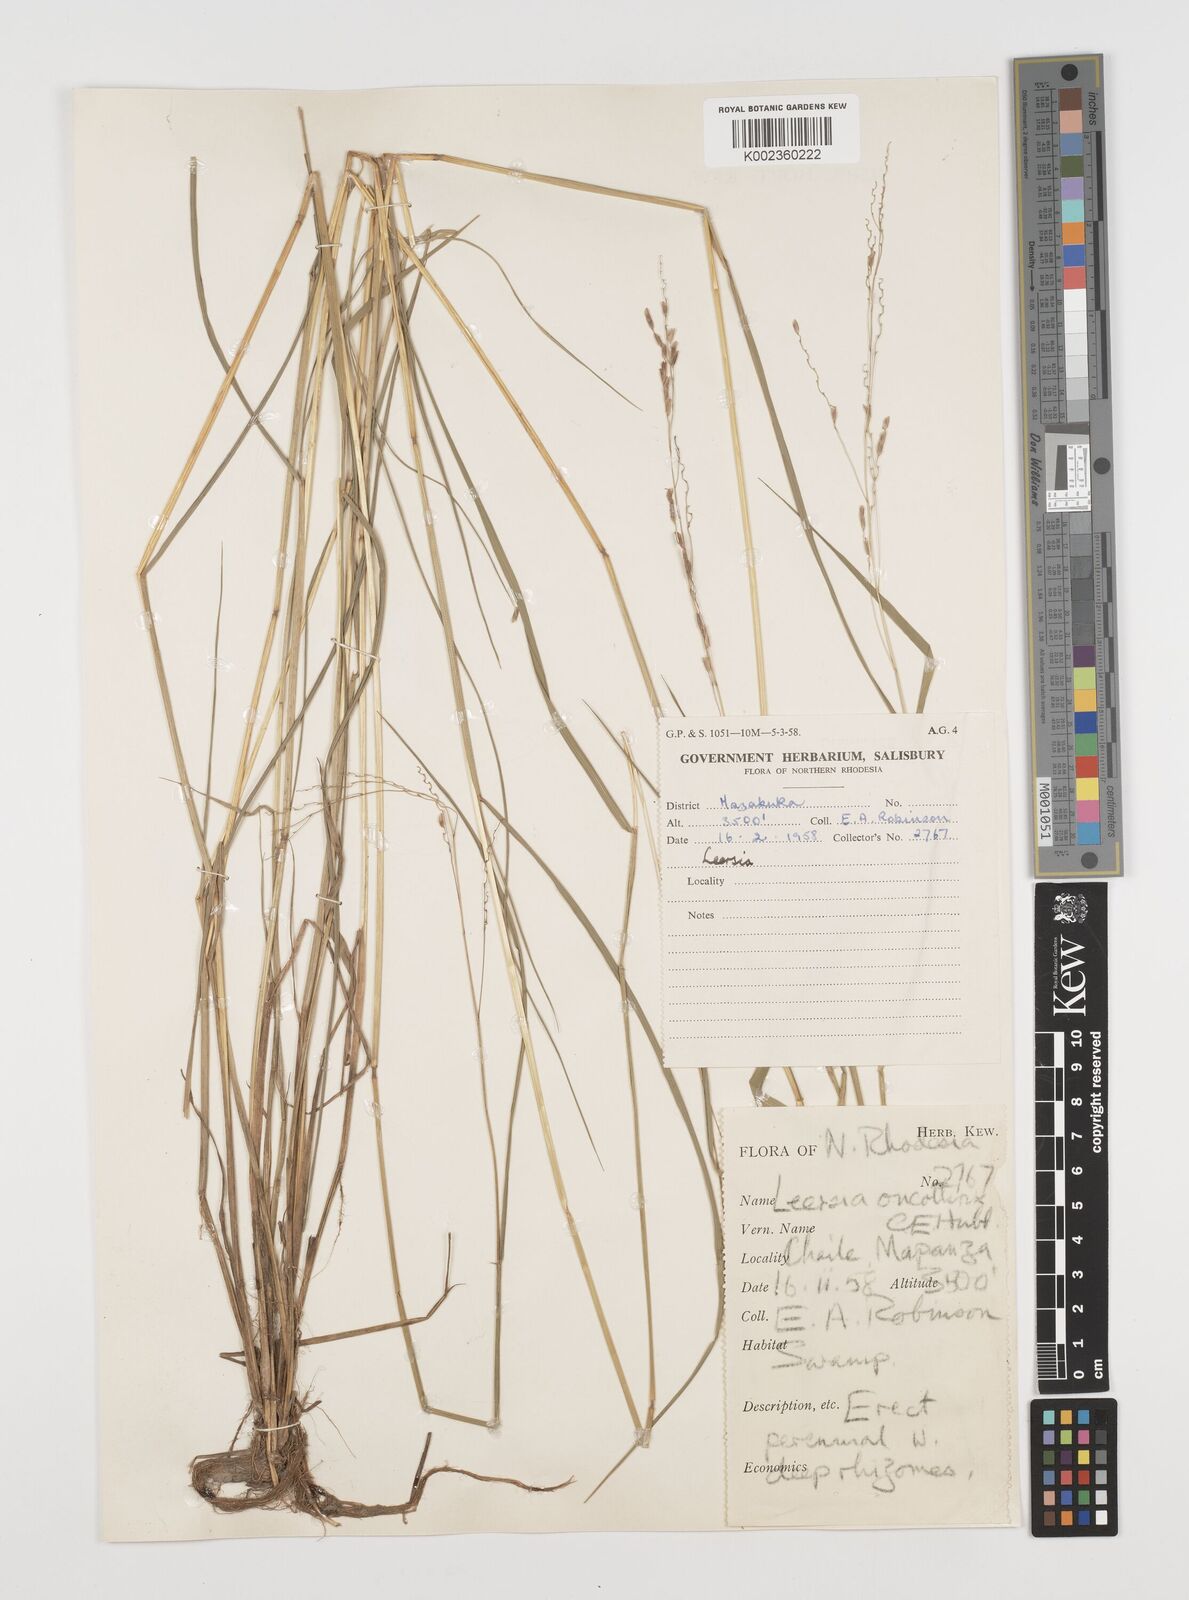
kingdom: Plantae
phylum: Tracheophyta
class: Liliopsida
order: Poales
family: Poaceae
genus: Leersia
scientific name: Leersia oncothrix
